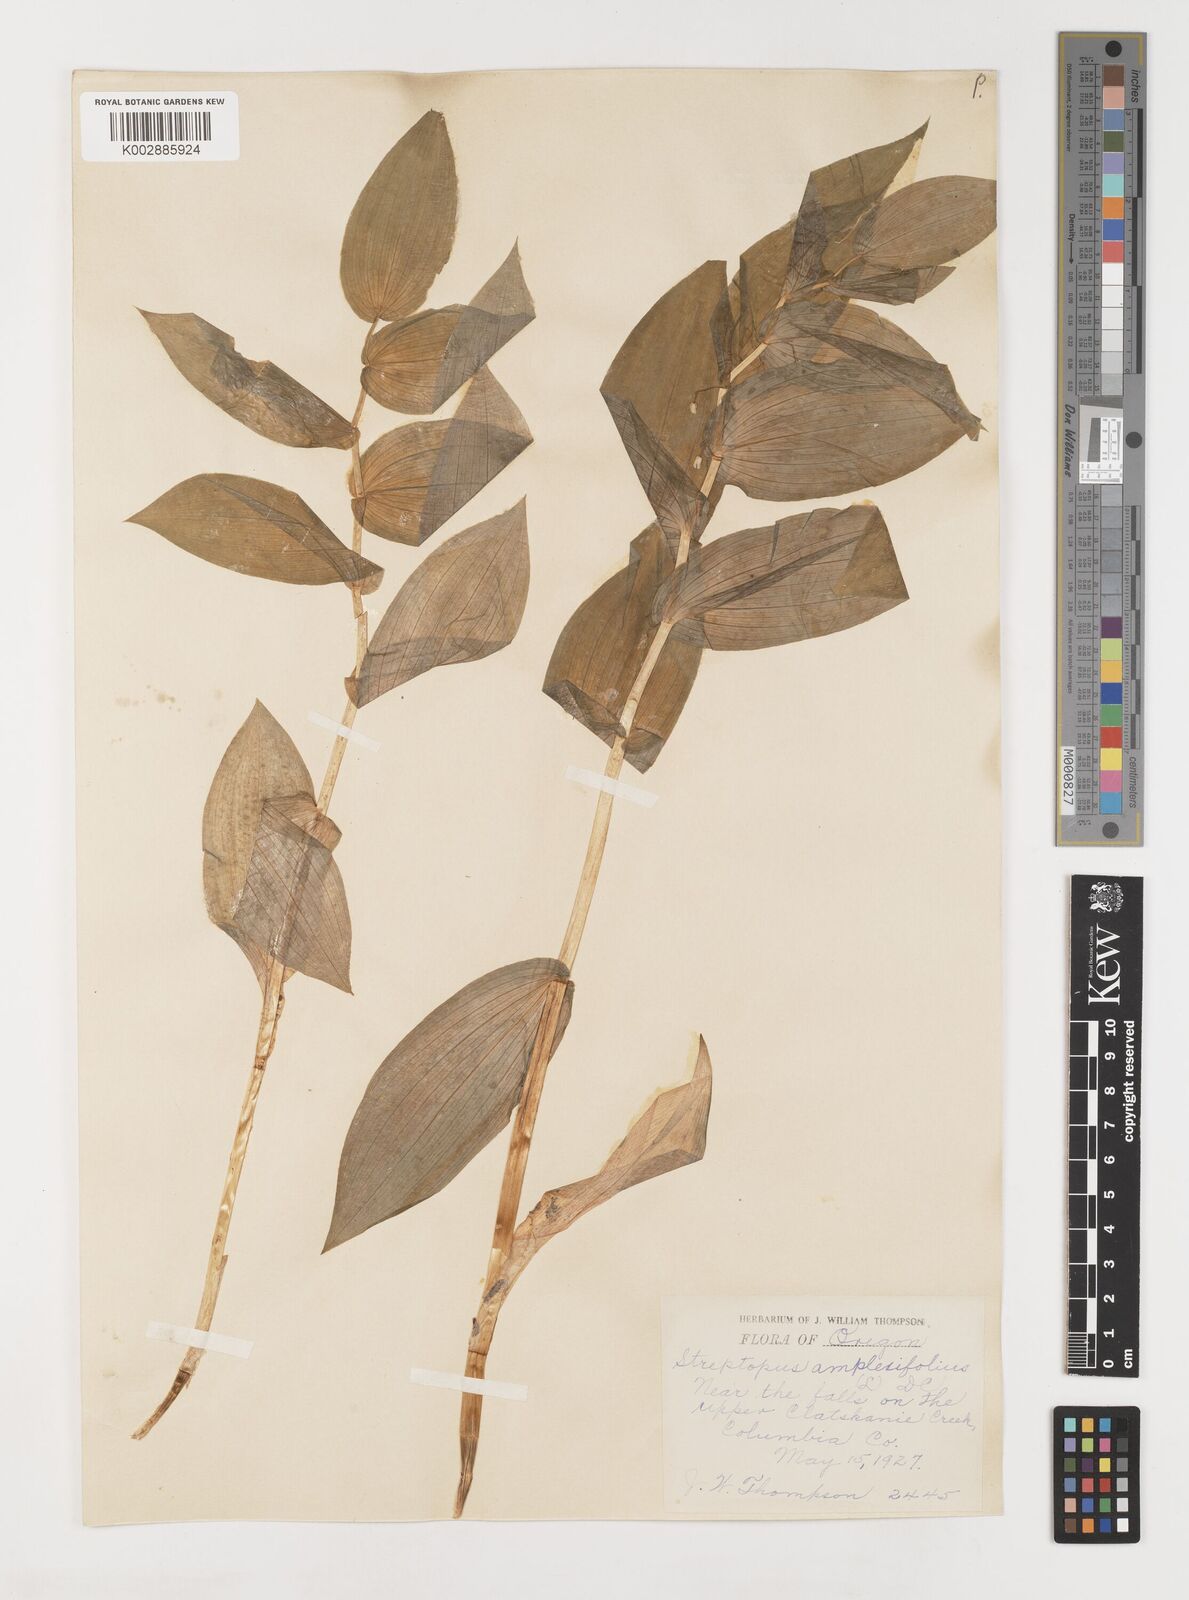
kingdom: Plantae
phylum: Tracheophyta
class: Liliopsida
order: Liliales
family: Liliaceae
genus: Streptopus
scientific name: Streptopus
